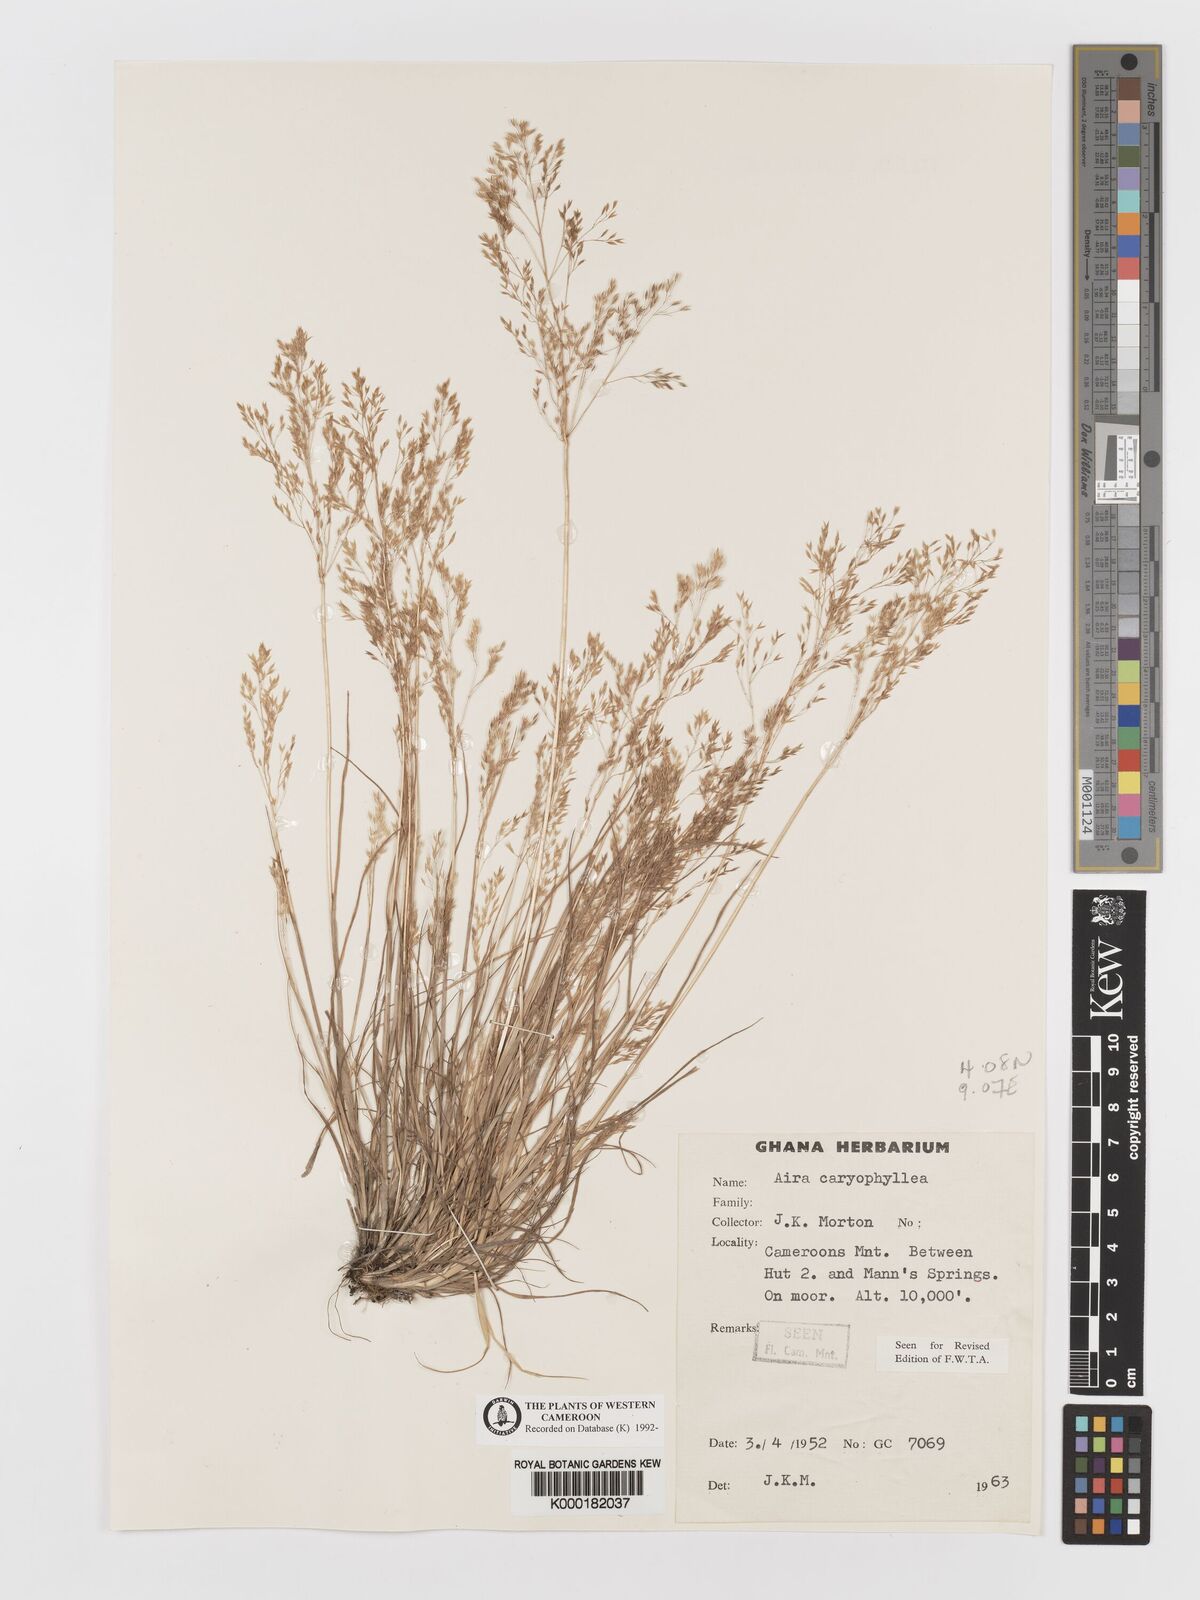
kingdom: Plantae
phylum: Tracheophyta
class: Liliopsida
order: Poales
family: Poaceae
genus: Aira
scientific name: Aira caryophyllea
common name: Silver hairgrass
